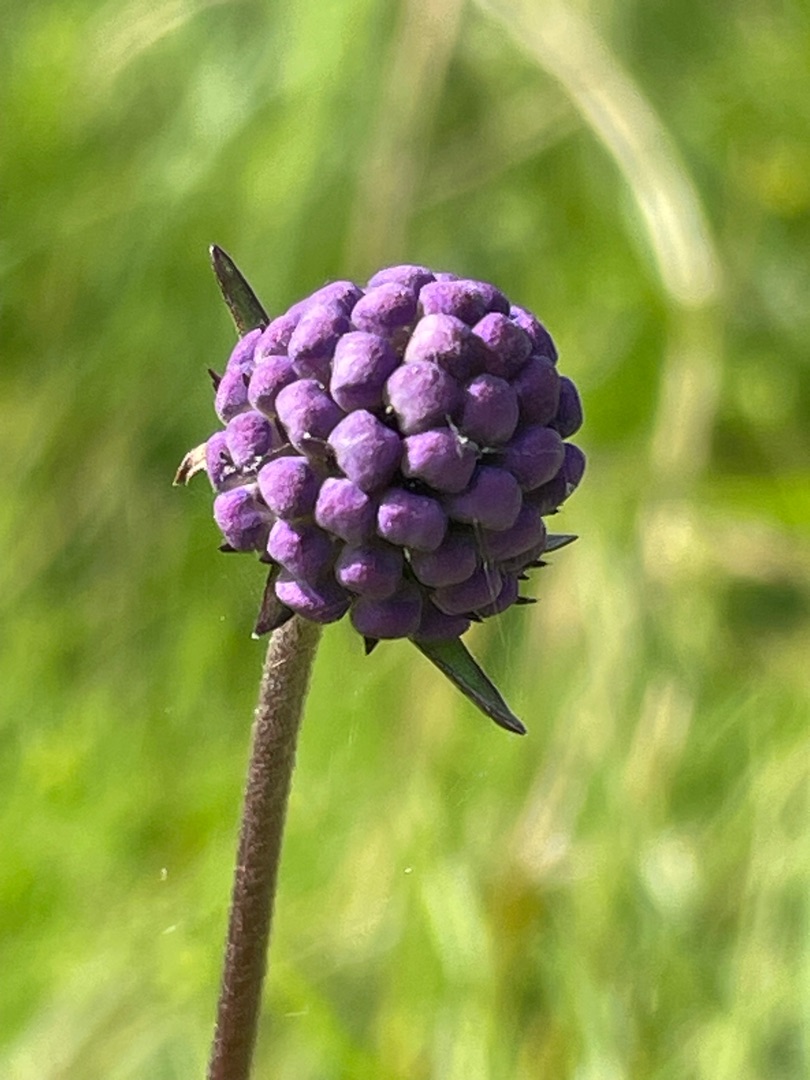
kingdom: Plantae
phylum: Tracheophyta
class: Magnoliopsida
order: Dipsacales
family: Caprifoliaceae
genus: Succisa
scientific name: Succisa pratensis
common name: Djævelsbid
